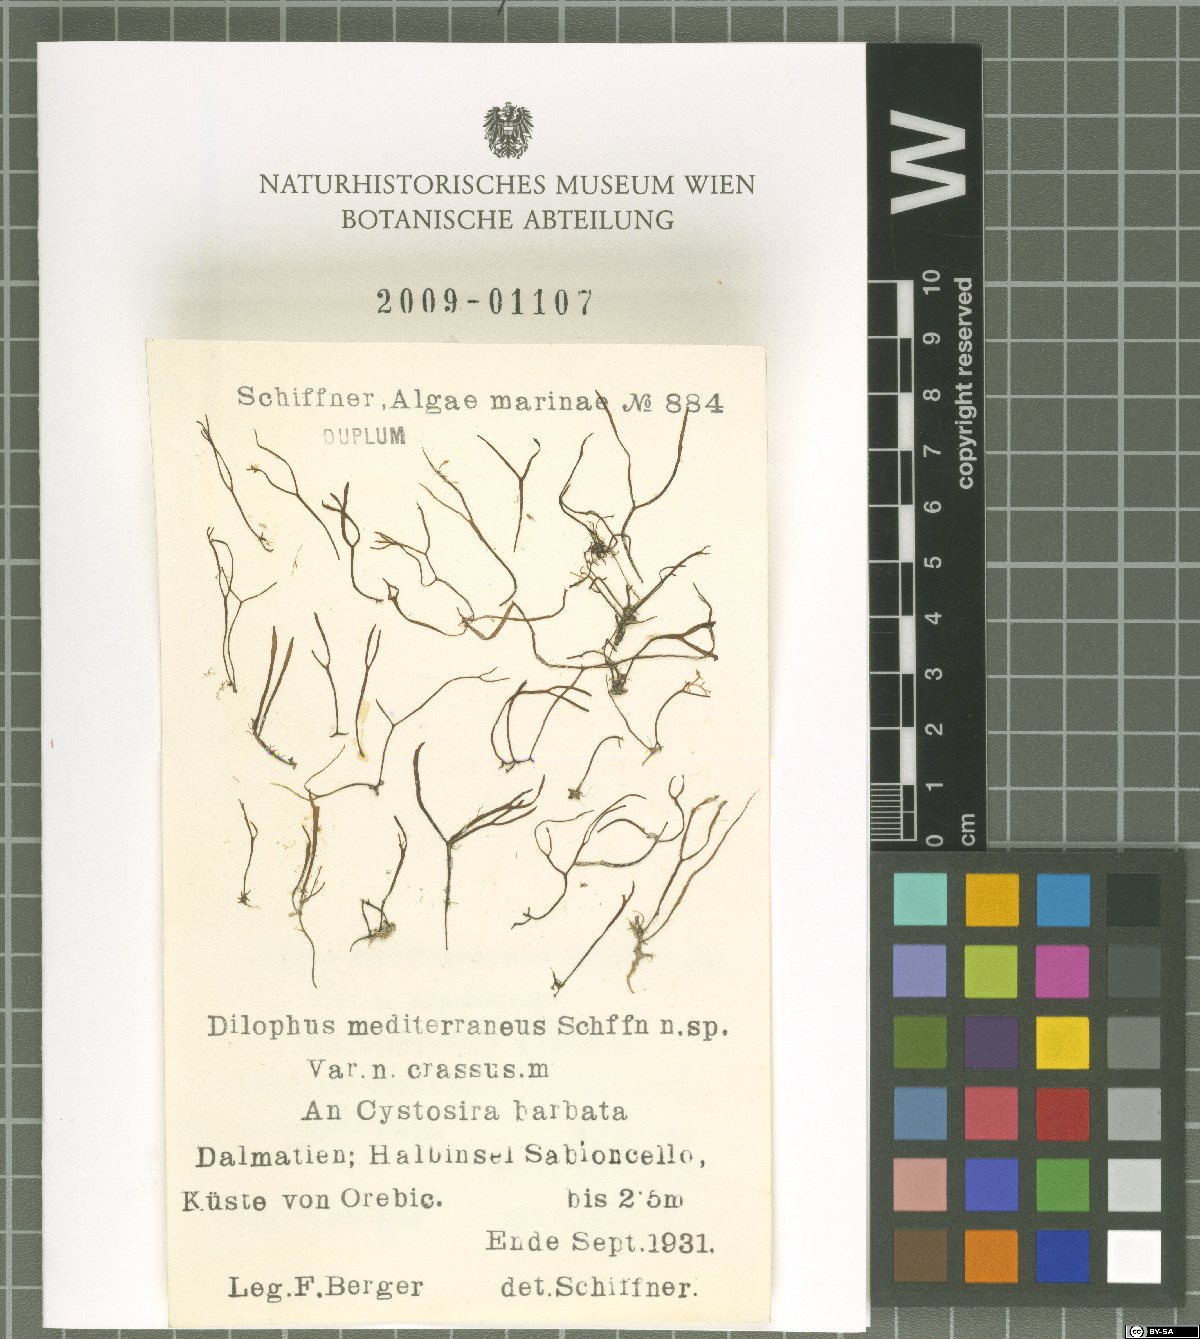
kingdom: Chromista
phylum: Ochrophyta
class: Phaeophyceae
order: Dictyotales
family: Dictyotaceae
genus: Dictyota
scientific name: Dictyota
